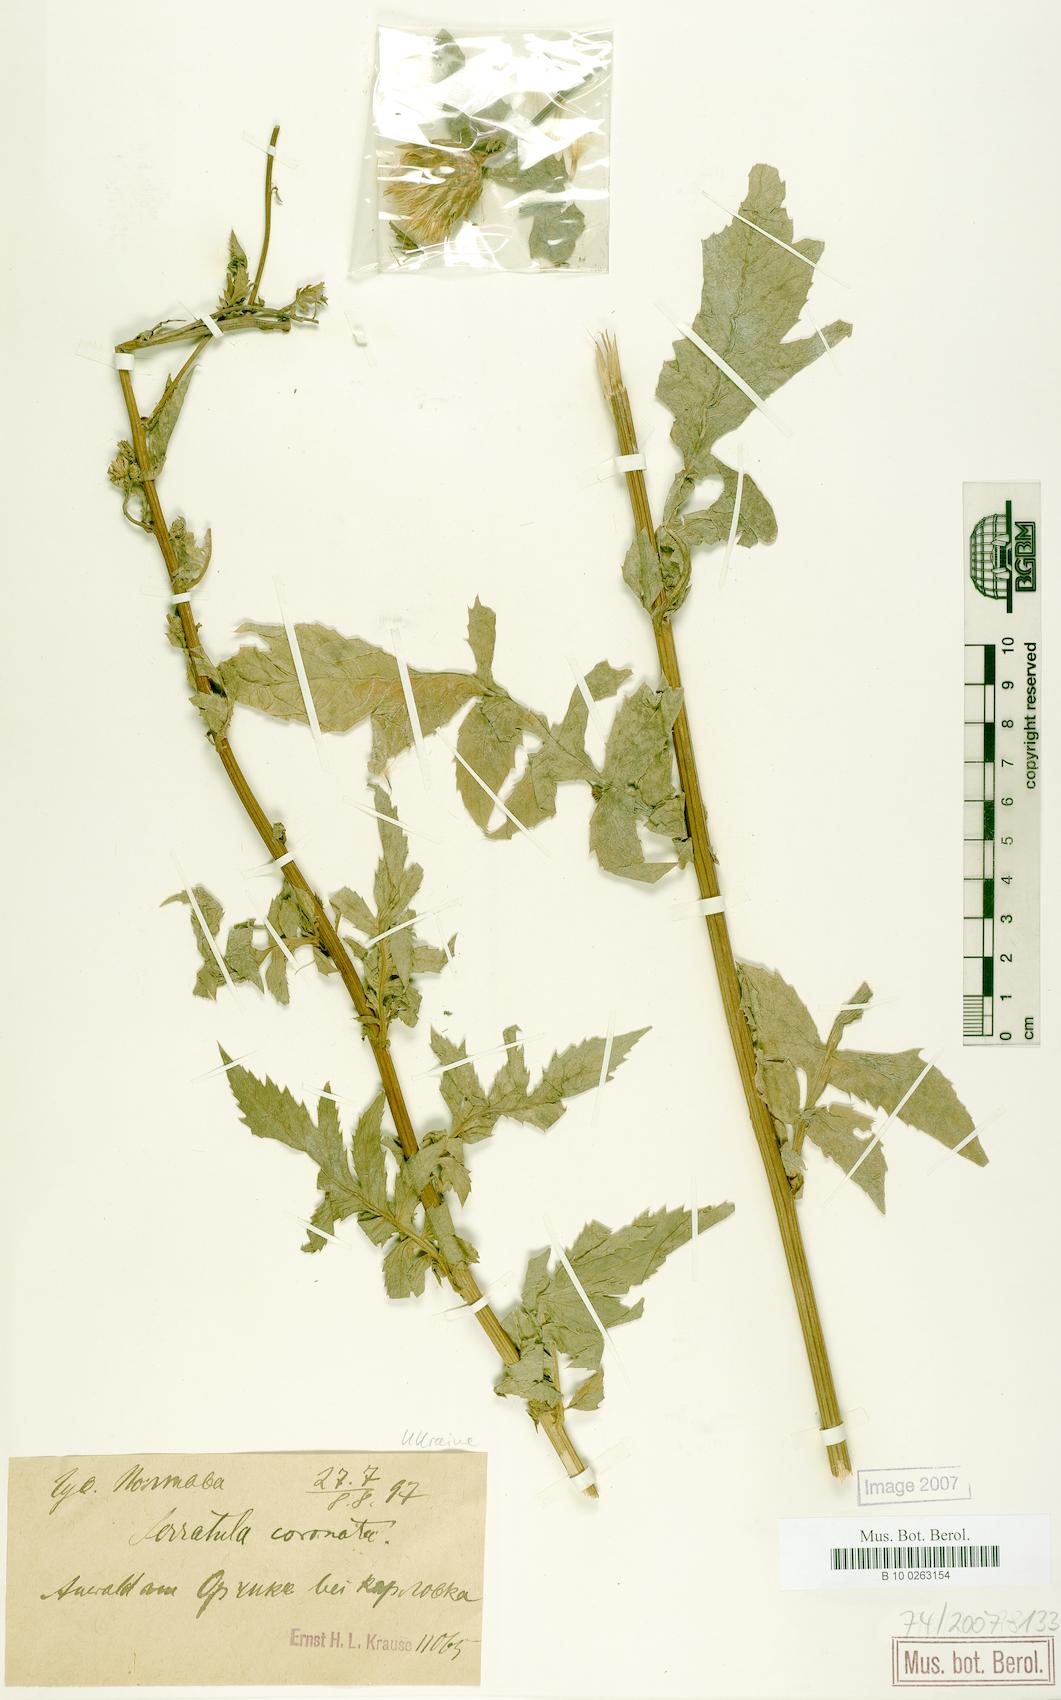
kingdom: Plantae
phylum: Tracheophyta
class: Magnoliopsida
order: Asterales
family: Asteraceae
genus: Serratula
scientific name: Serratula coronata
